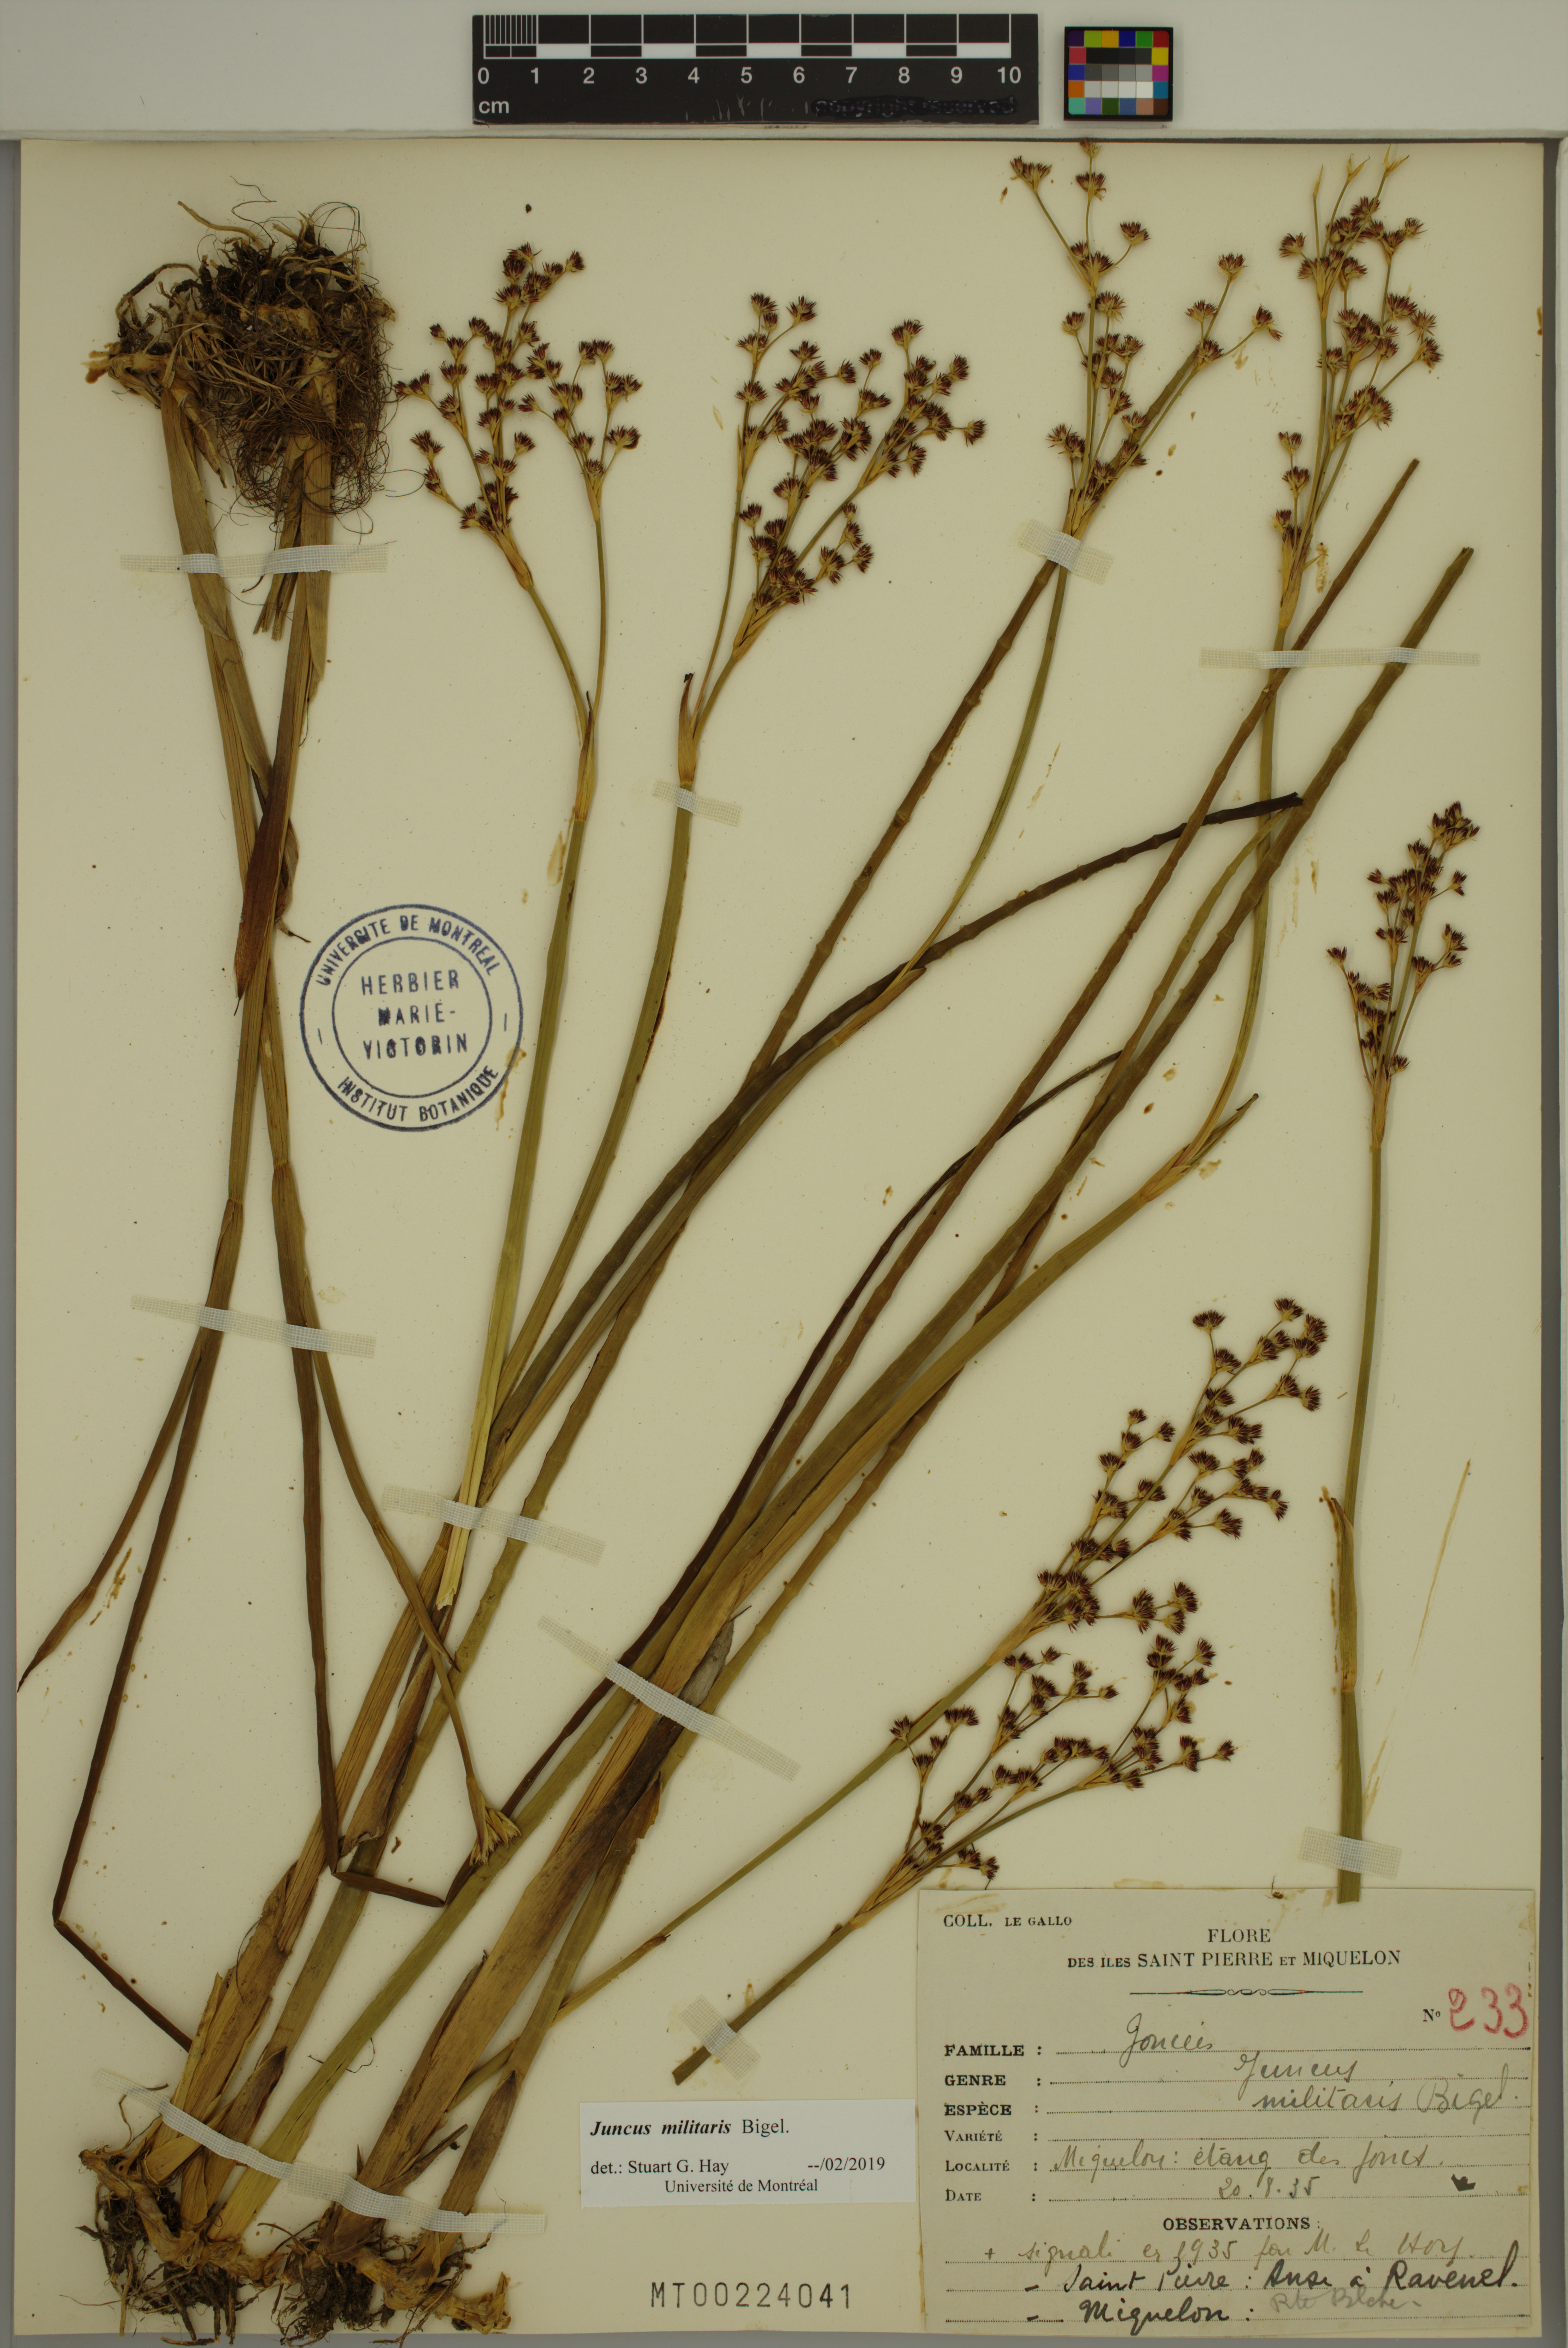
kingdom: Plantae
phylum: Tracheophyta
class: Liliopsida
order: Poales
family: Juncaceae
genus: Juncus
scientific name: Juncus militaris
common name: Bayonet rush
